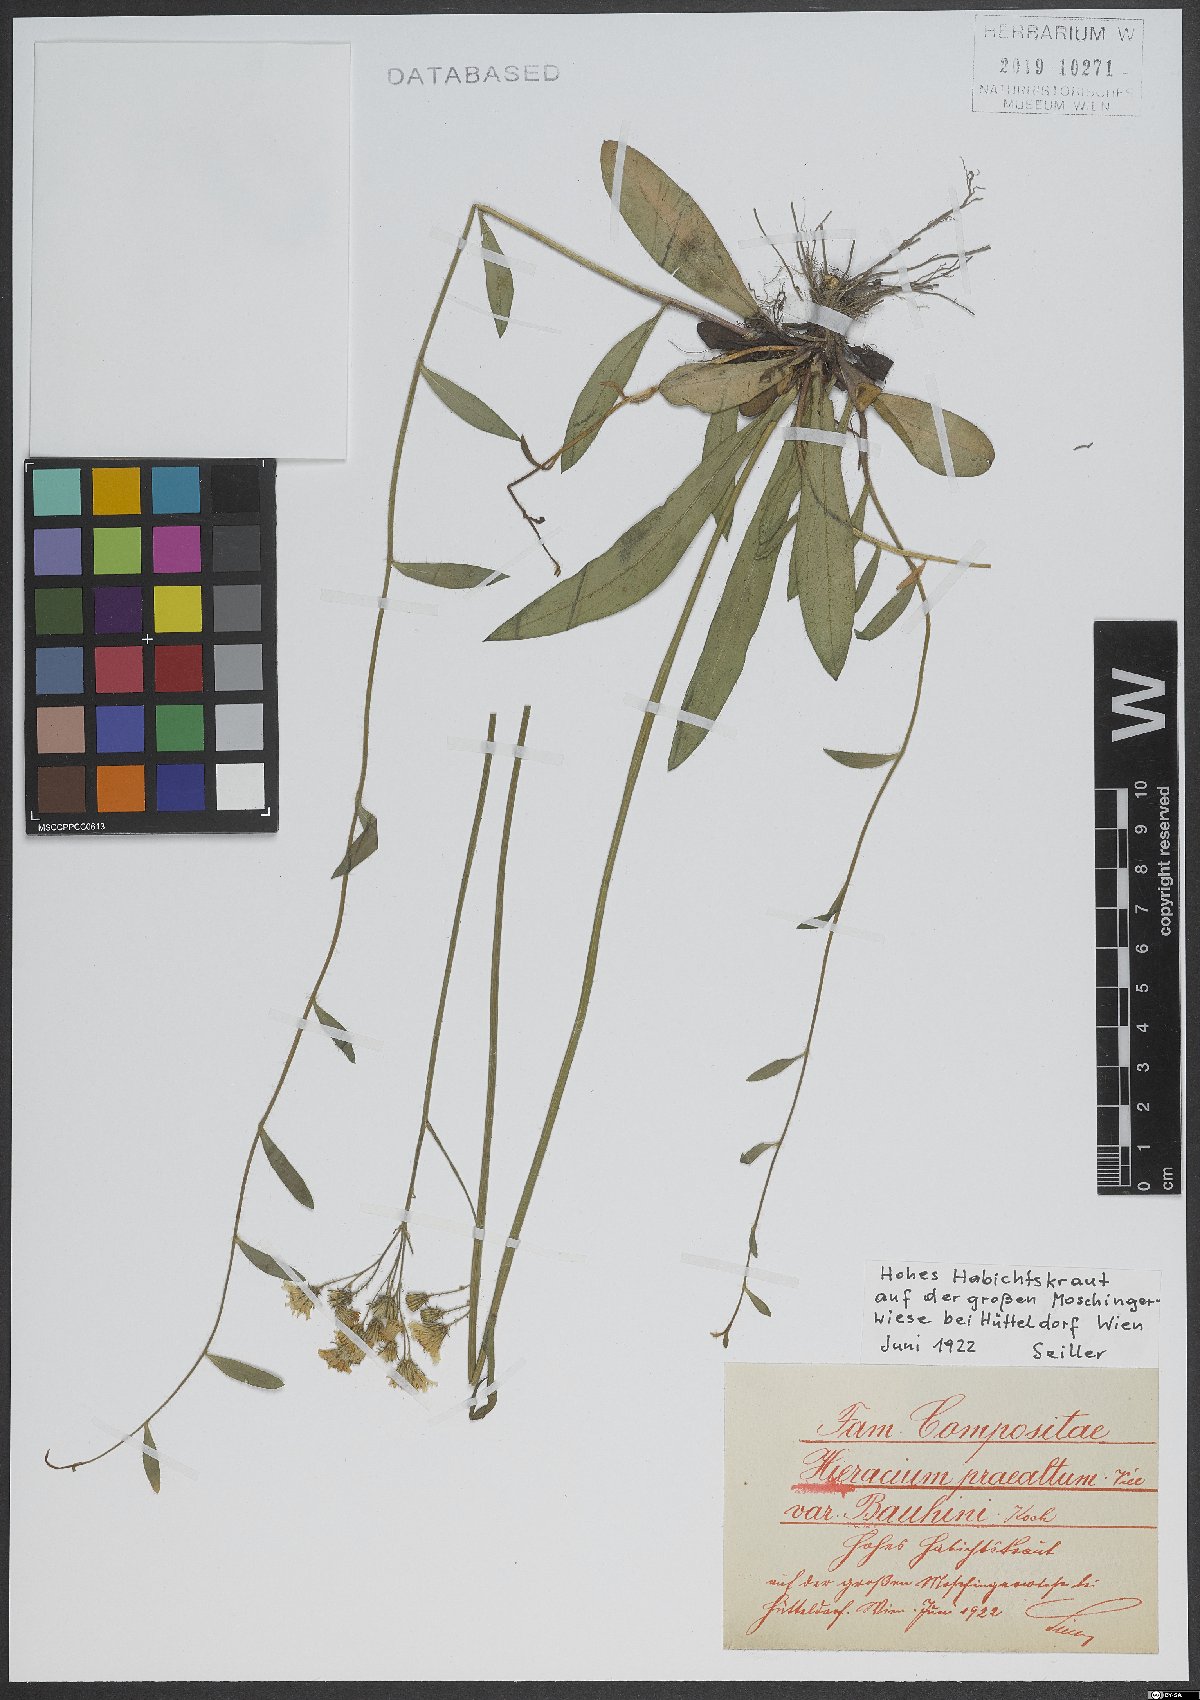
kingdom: Plantae
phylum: Tracheophyta
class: Magnoliopsida
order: Asterales
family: Asteraceae
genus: Pilosella
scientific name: Pilosella bauhini
